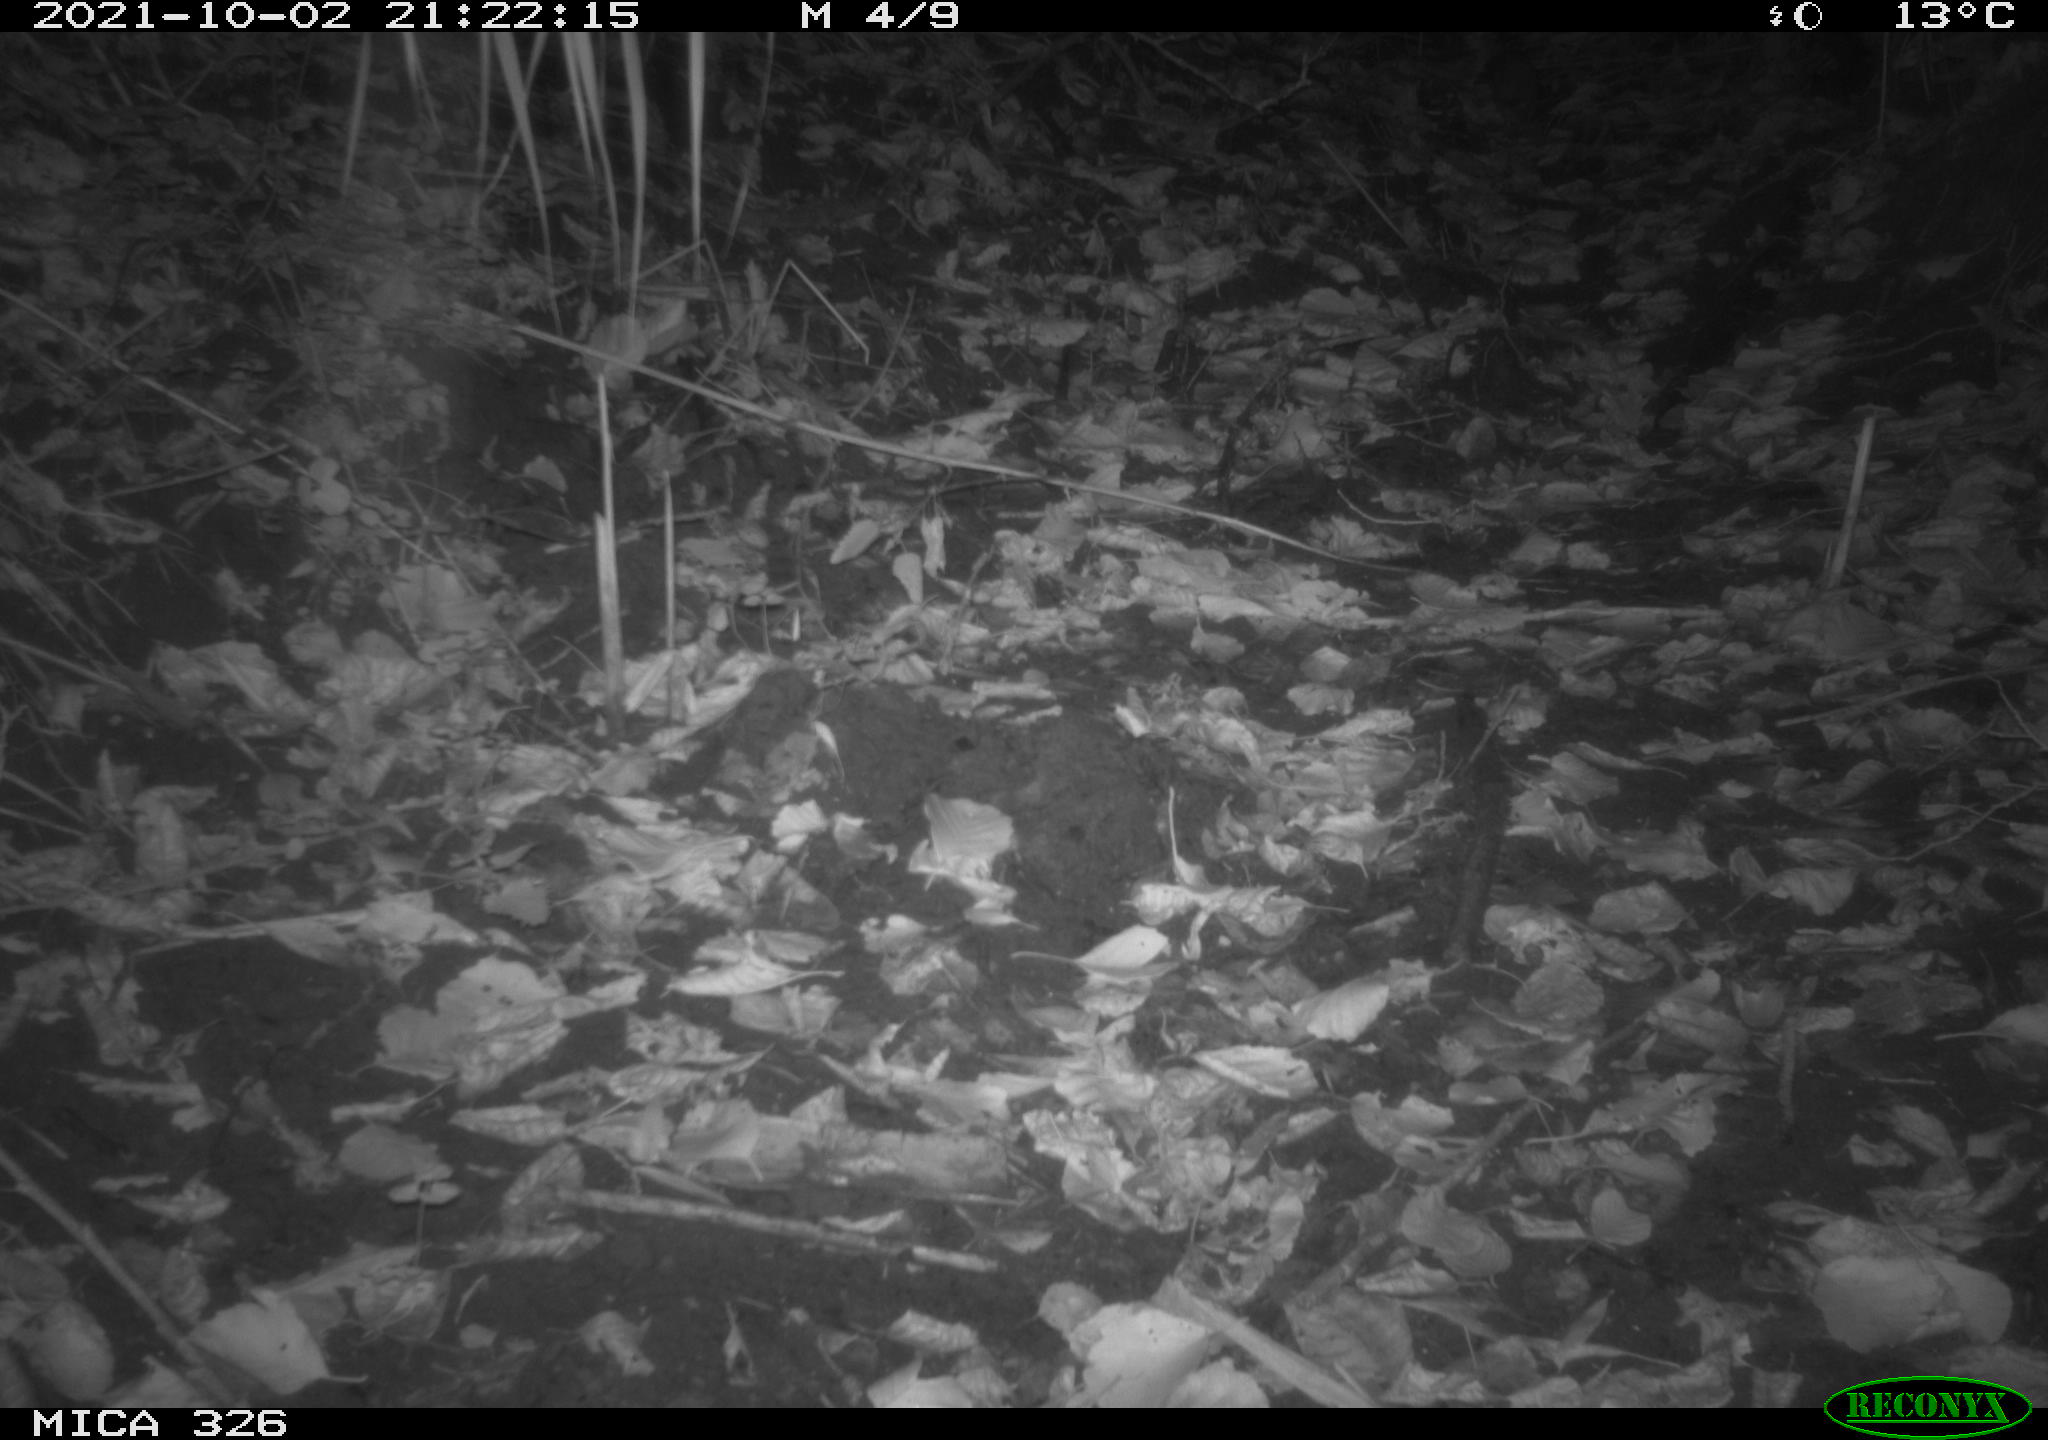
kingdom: Animalia
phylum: Chordata
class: Mammalia
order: Rodentia
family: Muridae
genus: Rattus
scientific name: Rattus norvegicus
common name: Brown rat
